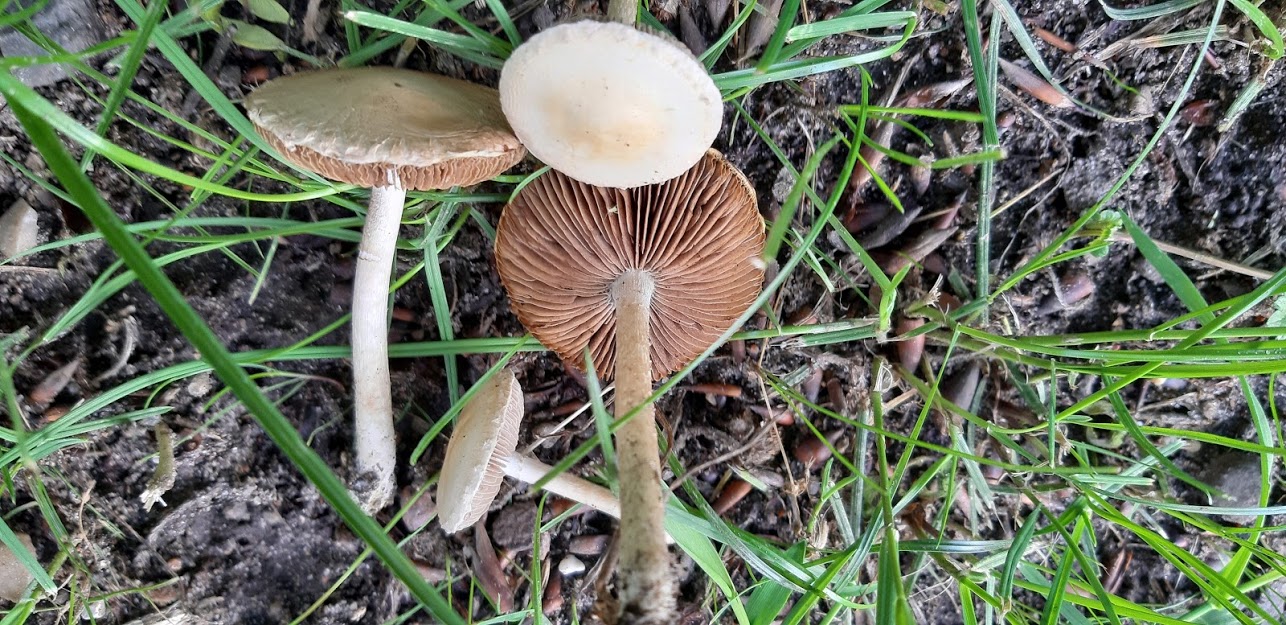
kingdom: Fungi
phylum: Basidiomycota
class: Agaricomycetes
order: Agaricales
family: Strophariaceae
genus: Agrocybe
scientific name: Agrocybe
